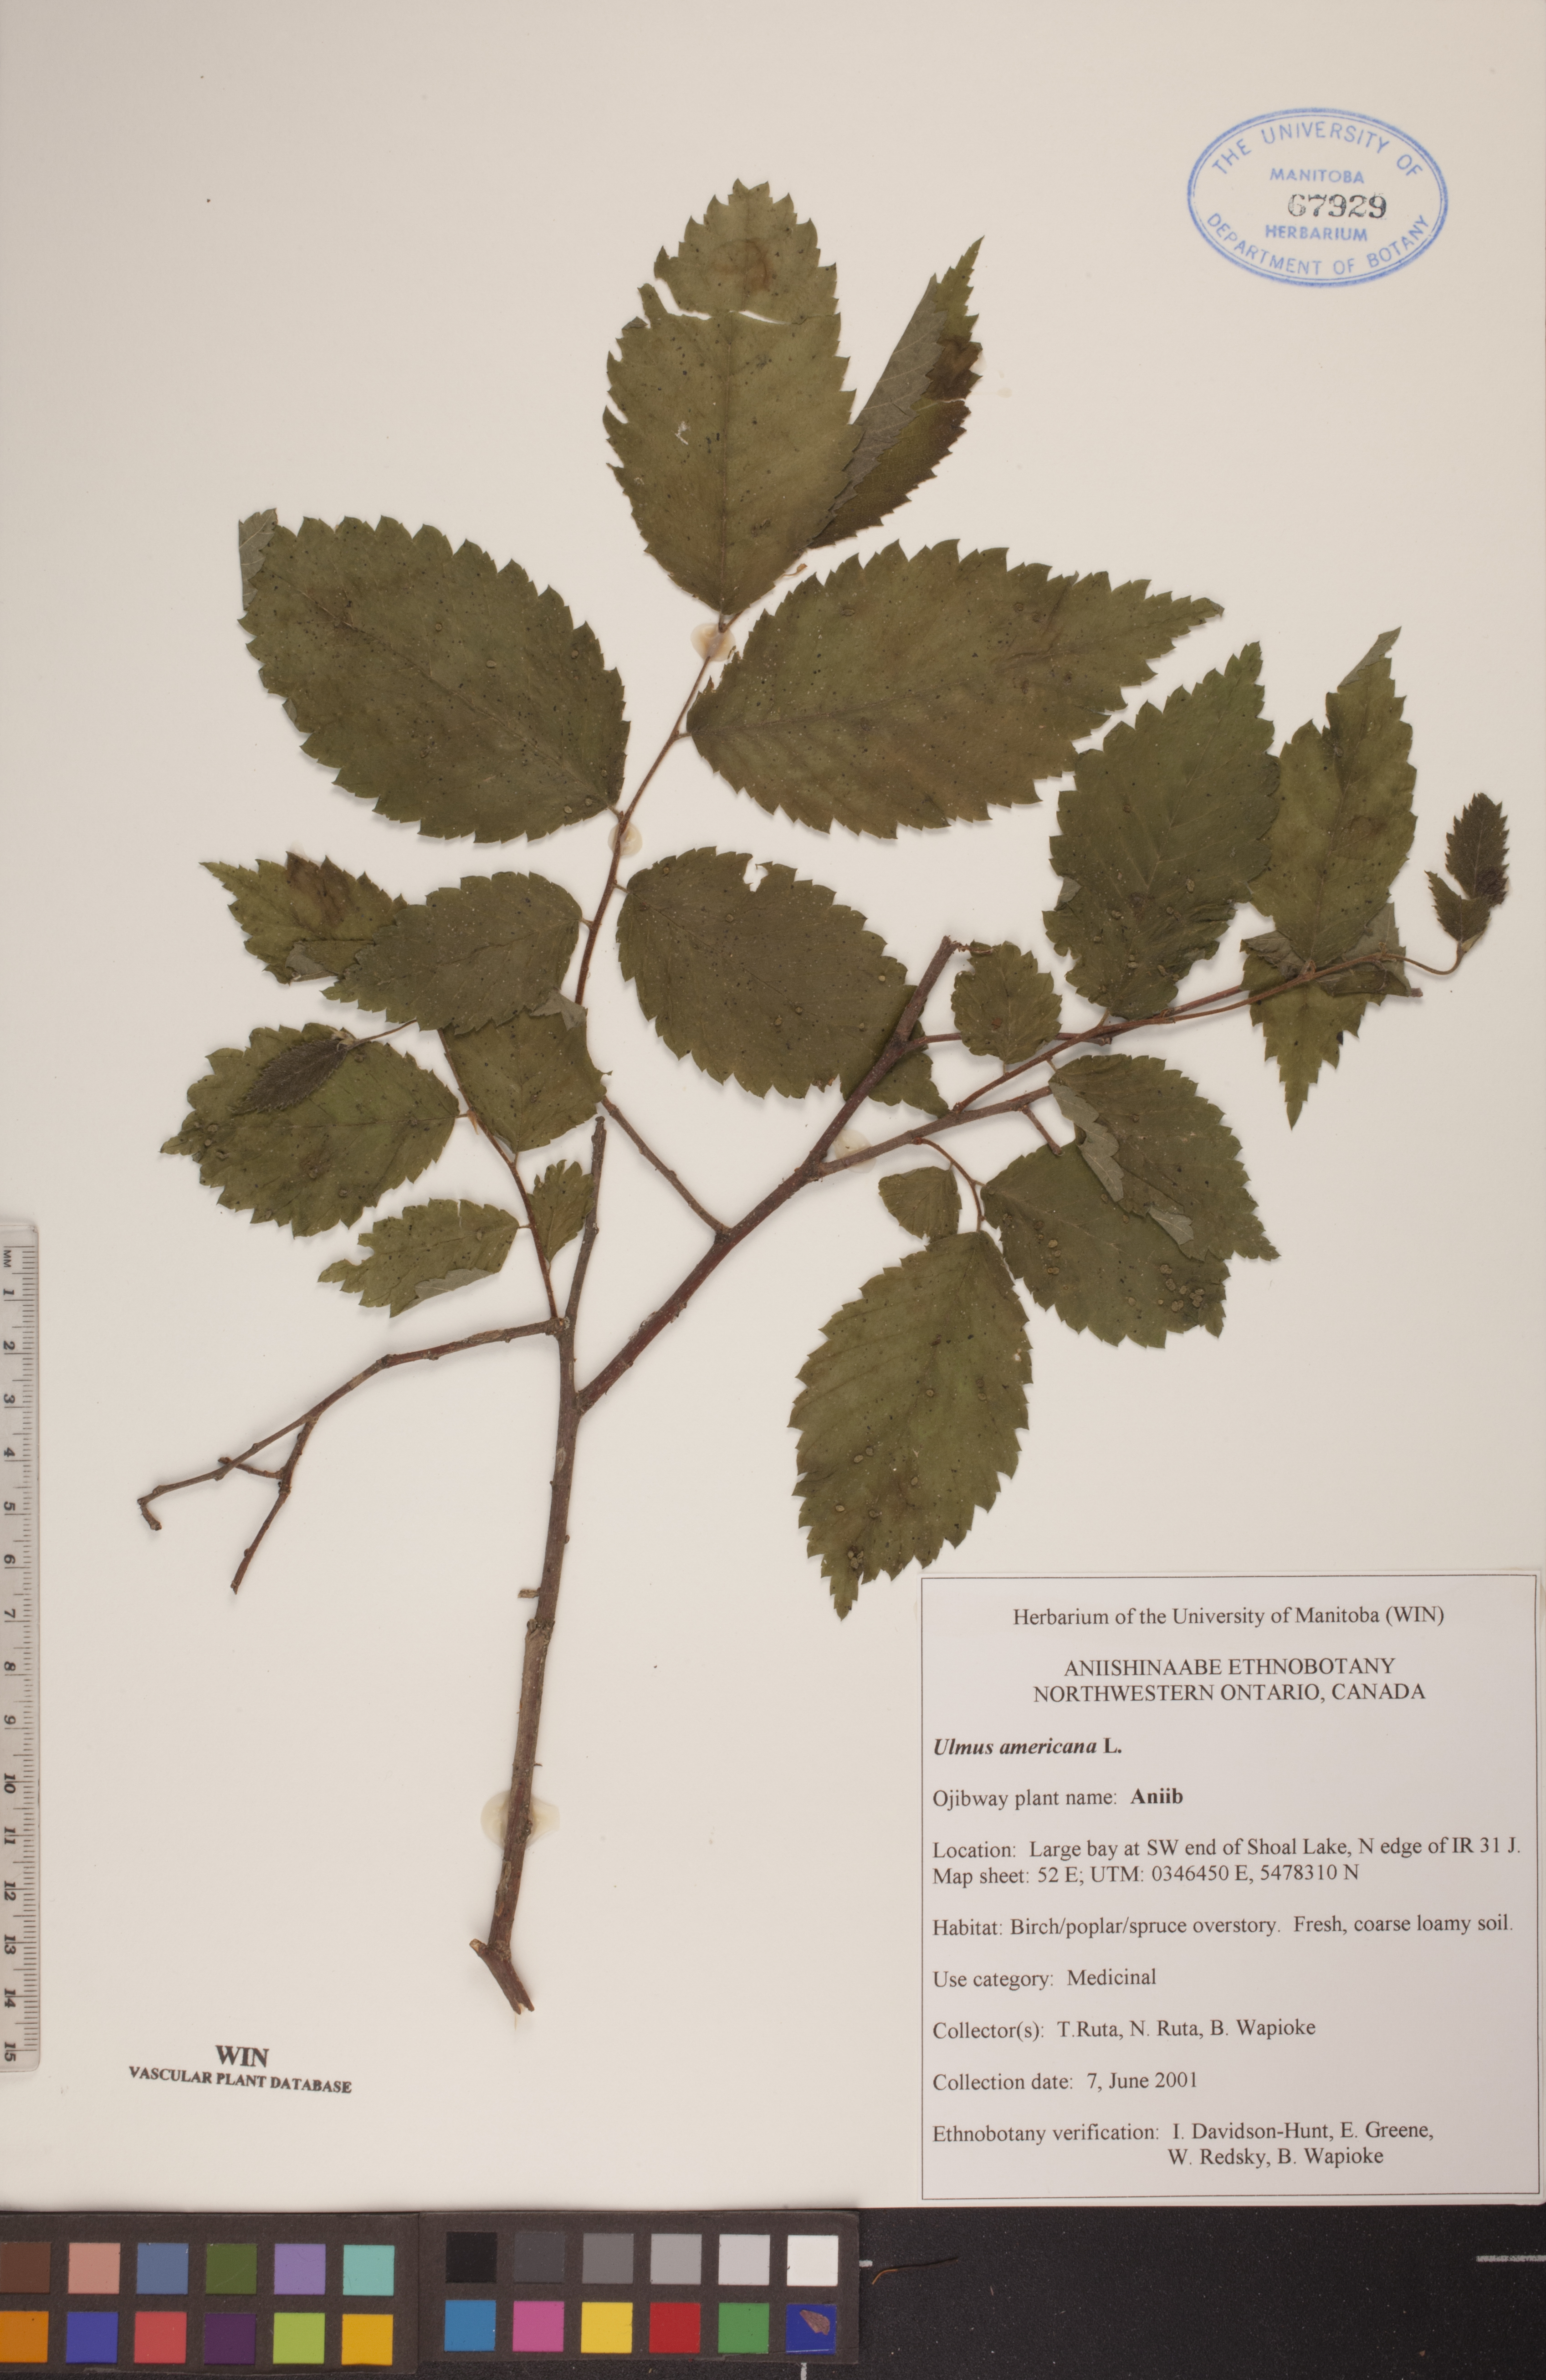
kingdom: Plantae
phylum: Tracheophyta
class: Magnoliopsida
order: Rosales
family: Ulmaceae
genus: Ulmus
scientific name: Ulmus americana
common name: American elm
